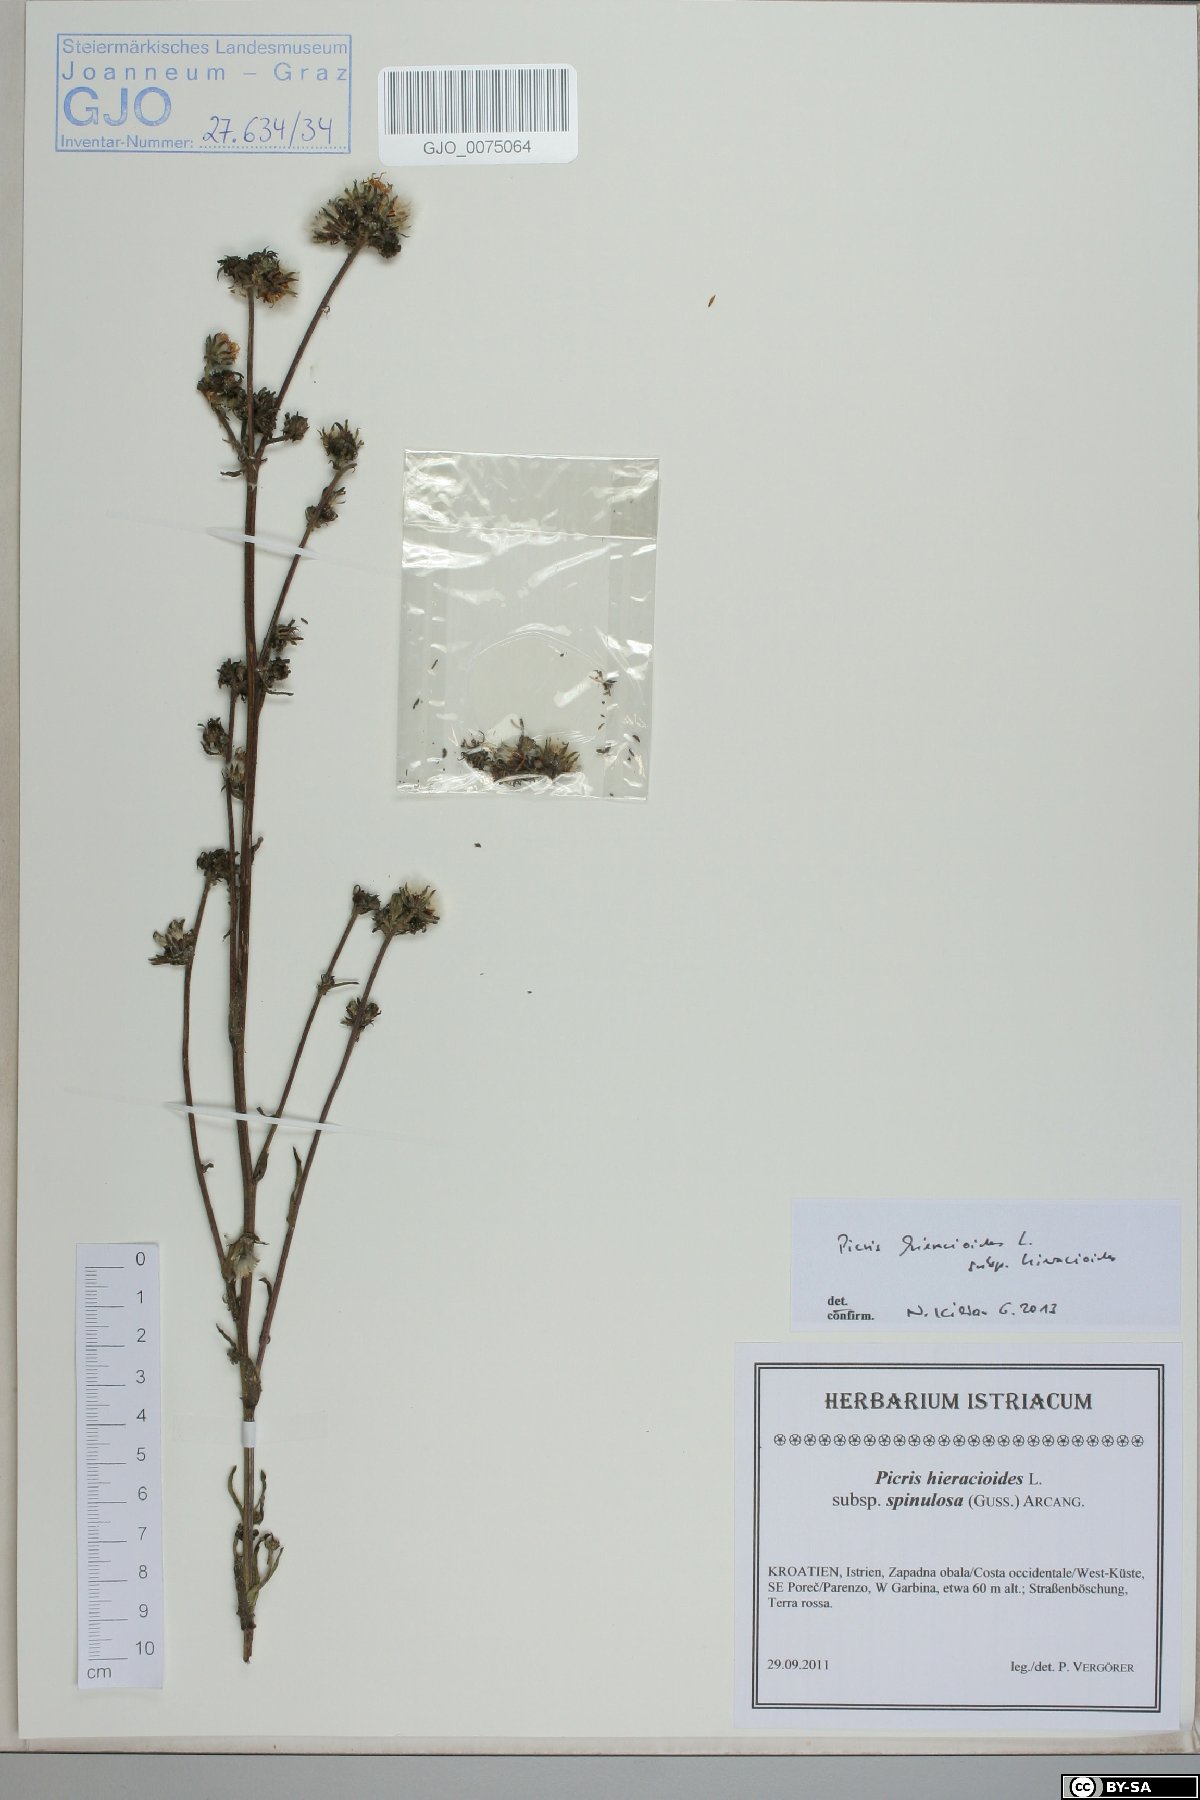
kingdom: Plantae
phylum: Tracheophyta
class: Magnoliopsida
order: Asterales
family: Asteraceae
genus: Picris
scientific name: Picris hieracioides
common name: Hawkweed oxtongue
